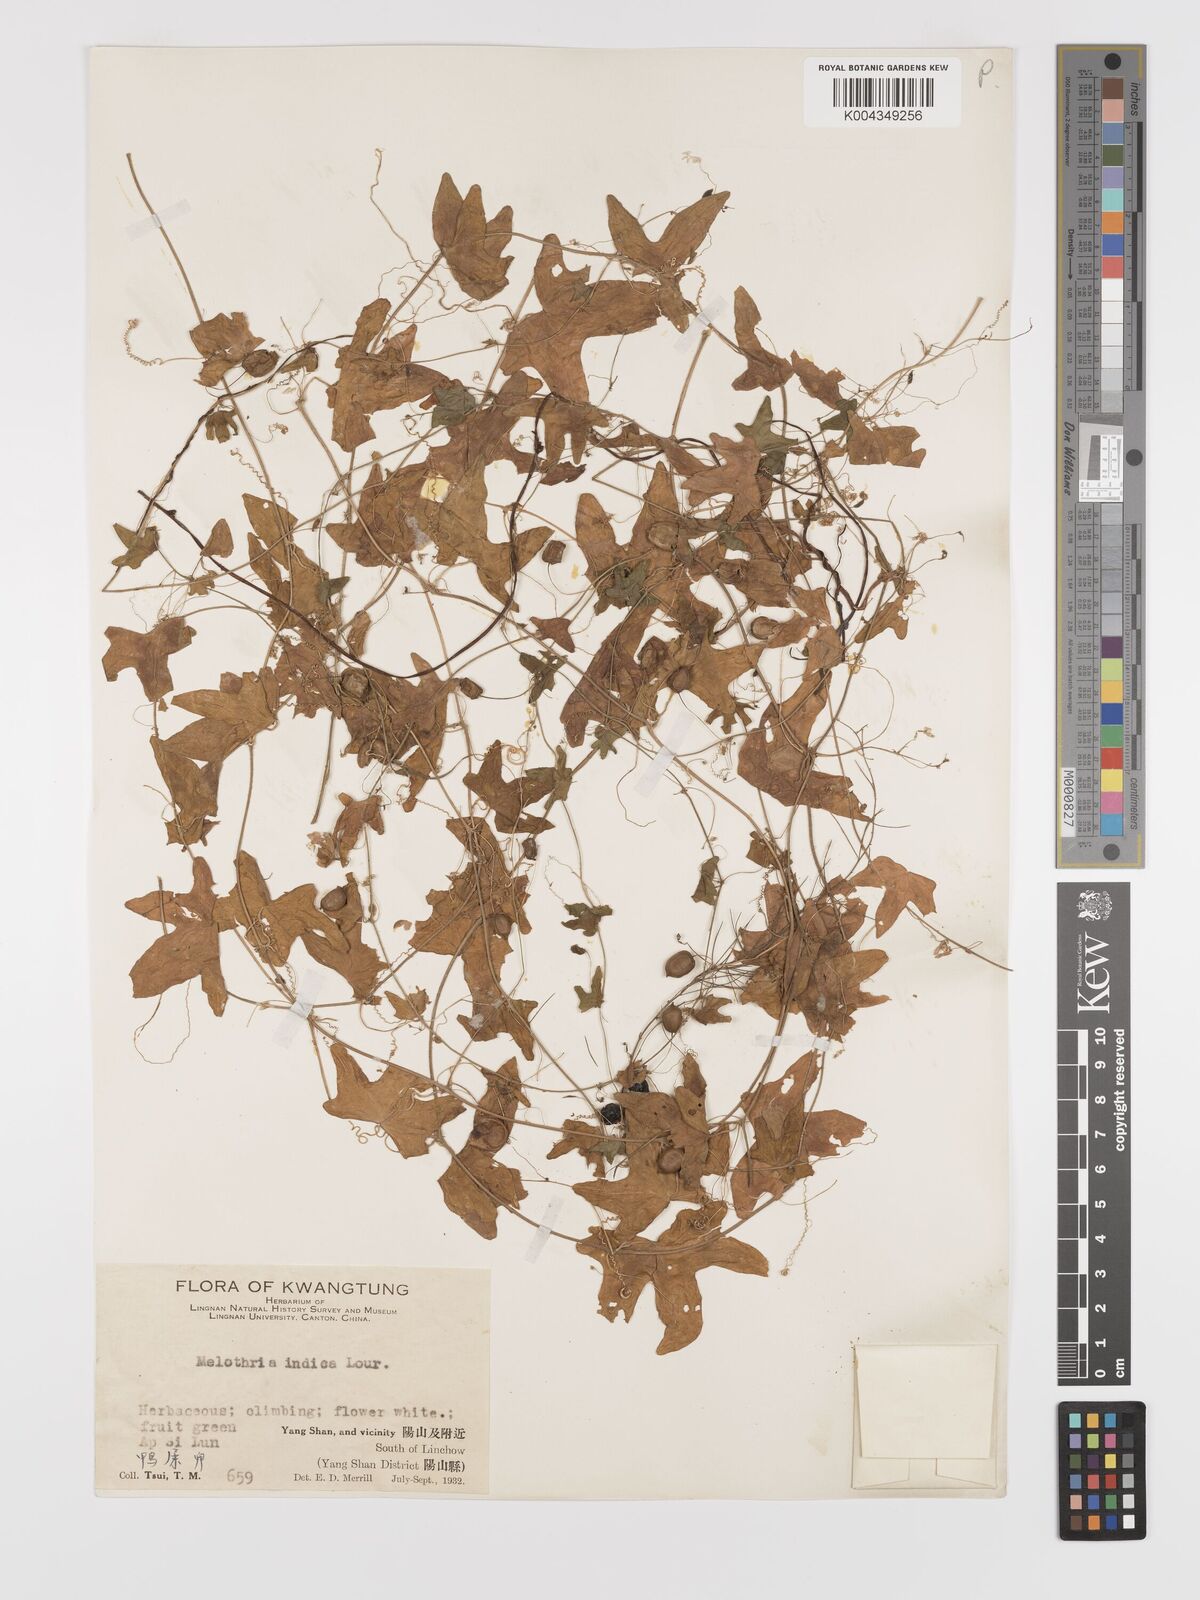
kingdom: Plantae
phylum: Tracheophyta
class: Magnoliopsida
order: Cucurbitales
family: Cucurbitaceae
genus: Zehneria
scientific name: Zehneria japonica
